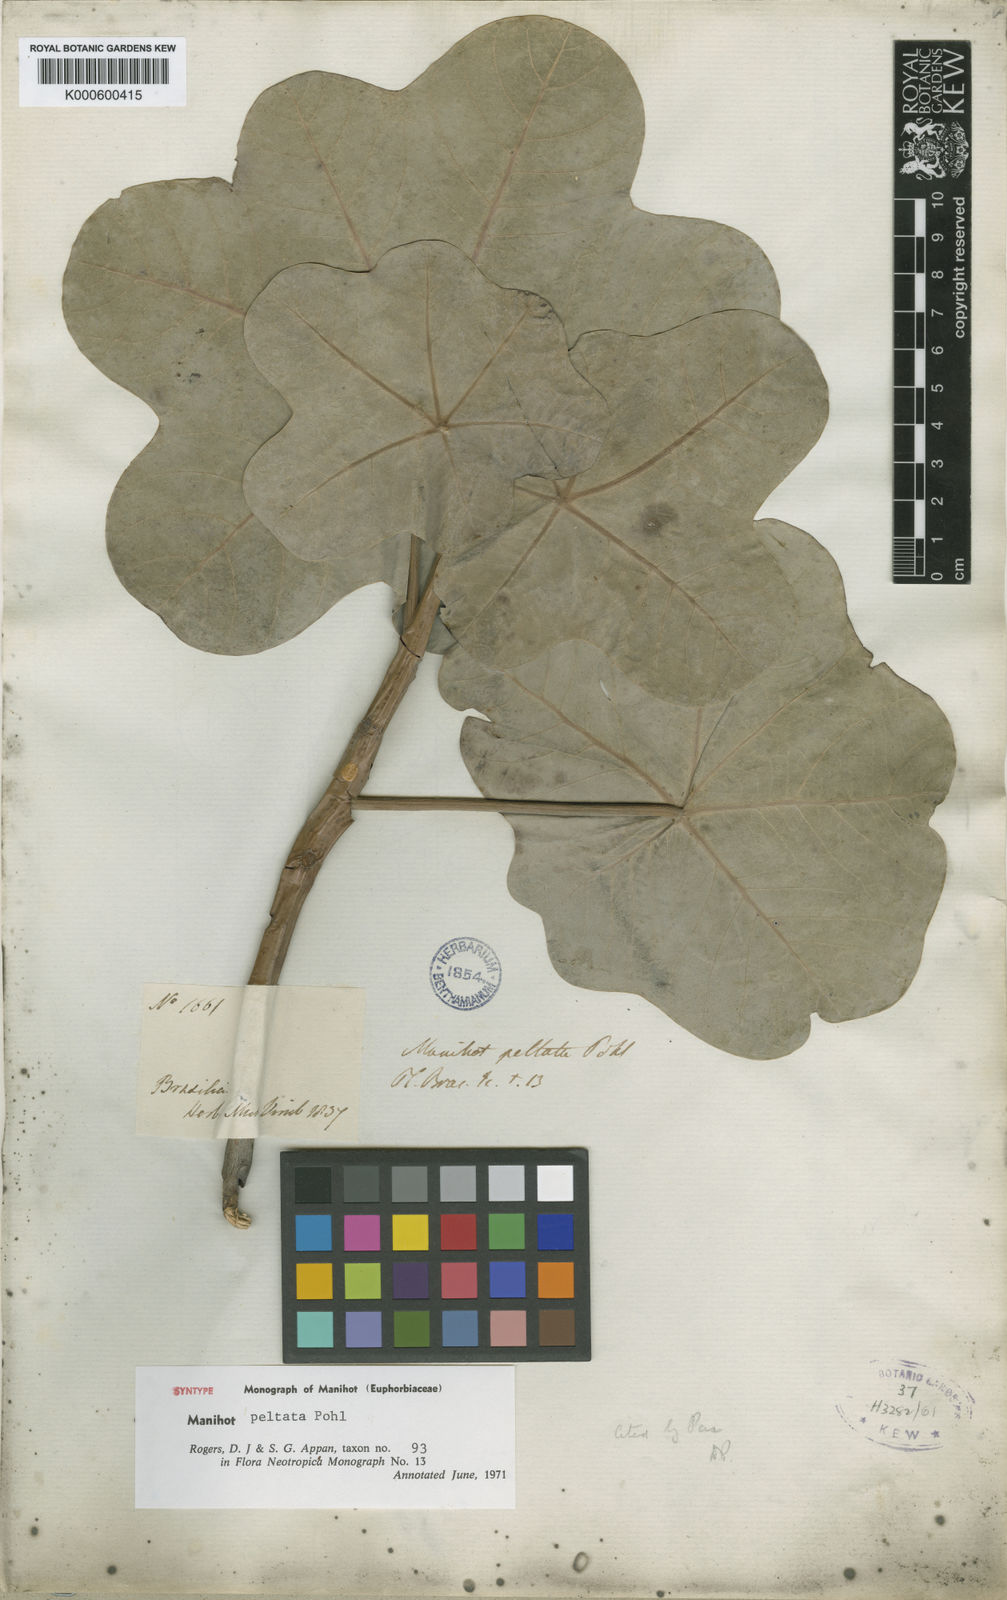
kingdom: Plantae
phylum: Tracheophyta
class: Magnoliopsida
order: Malpighiales
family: Euphorbiaceae
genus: Manihot
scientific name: Manihot peltata
